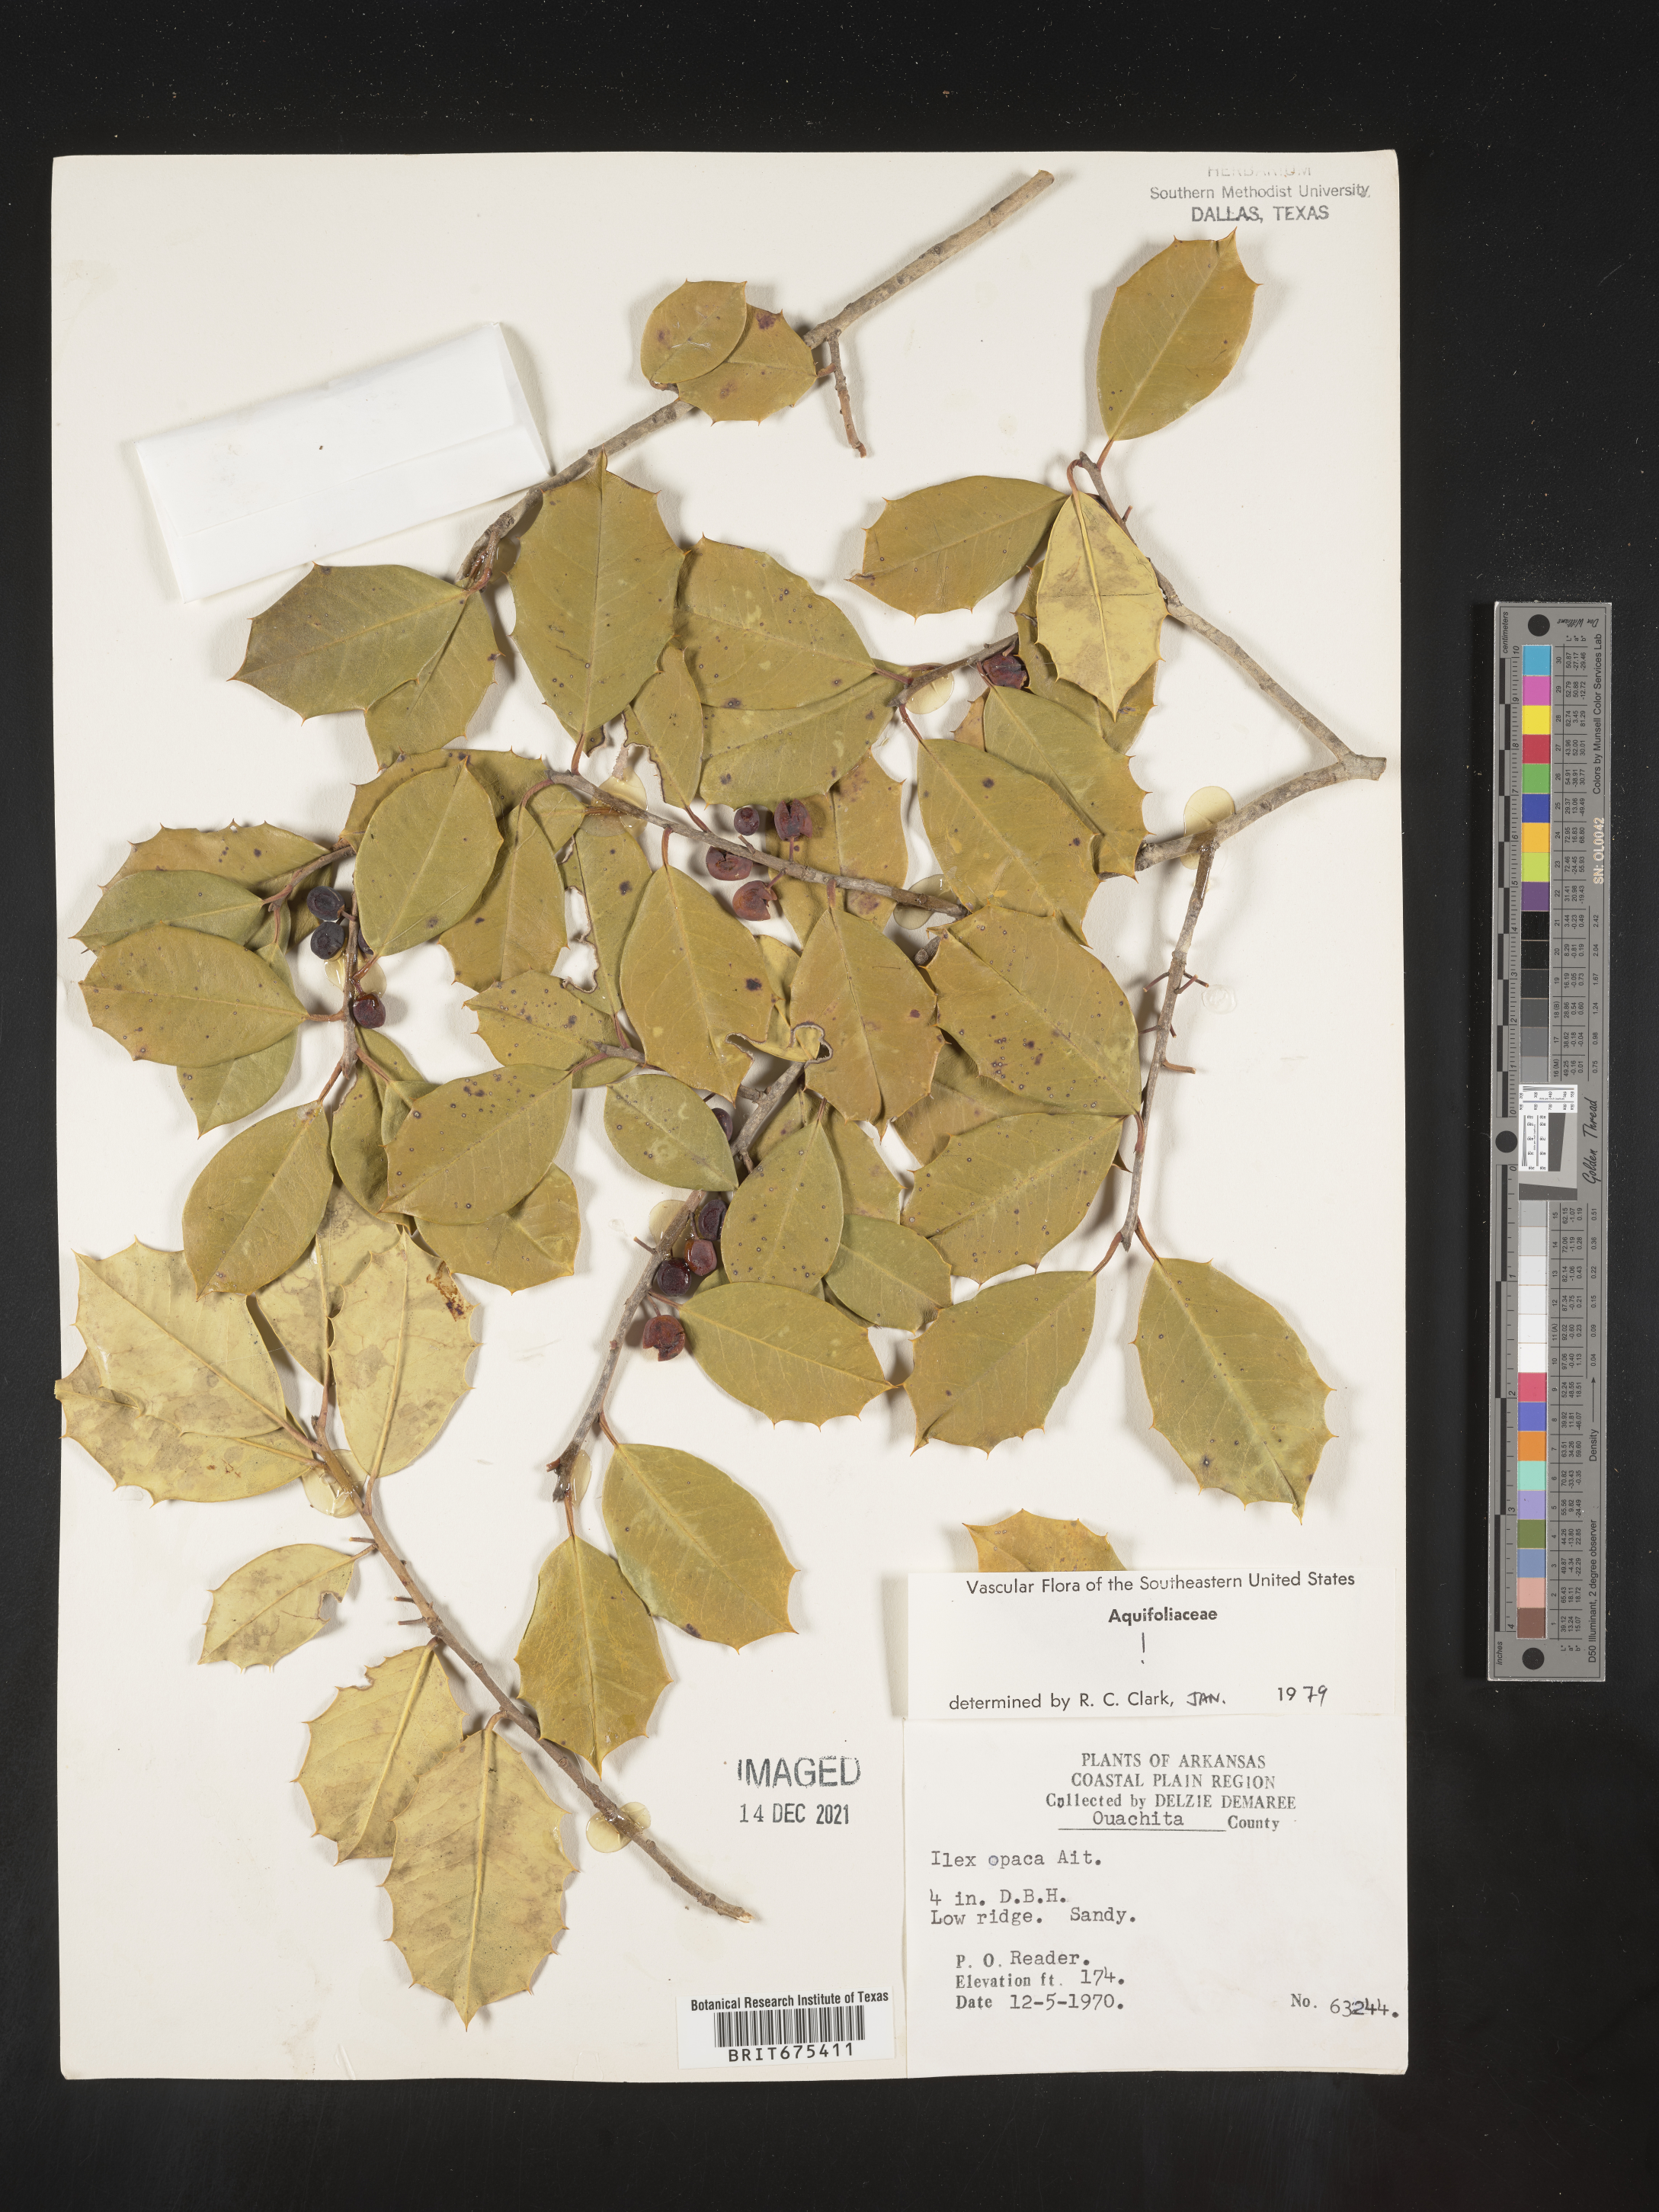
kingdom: Plantae
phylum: Tracheophyta
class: Magnoliopsida
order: Aquifoliales
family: Aquifoliaceae
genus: Ilex
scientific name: Ilex opaca
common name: American holly
